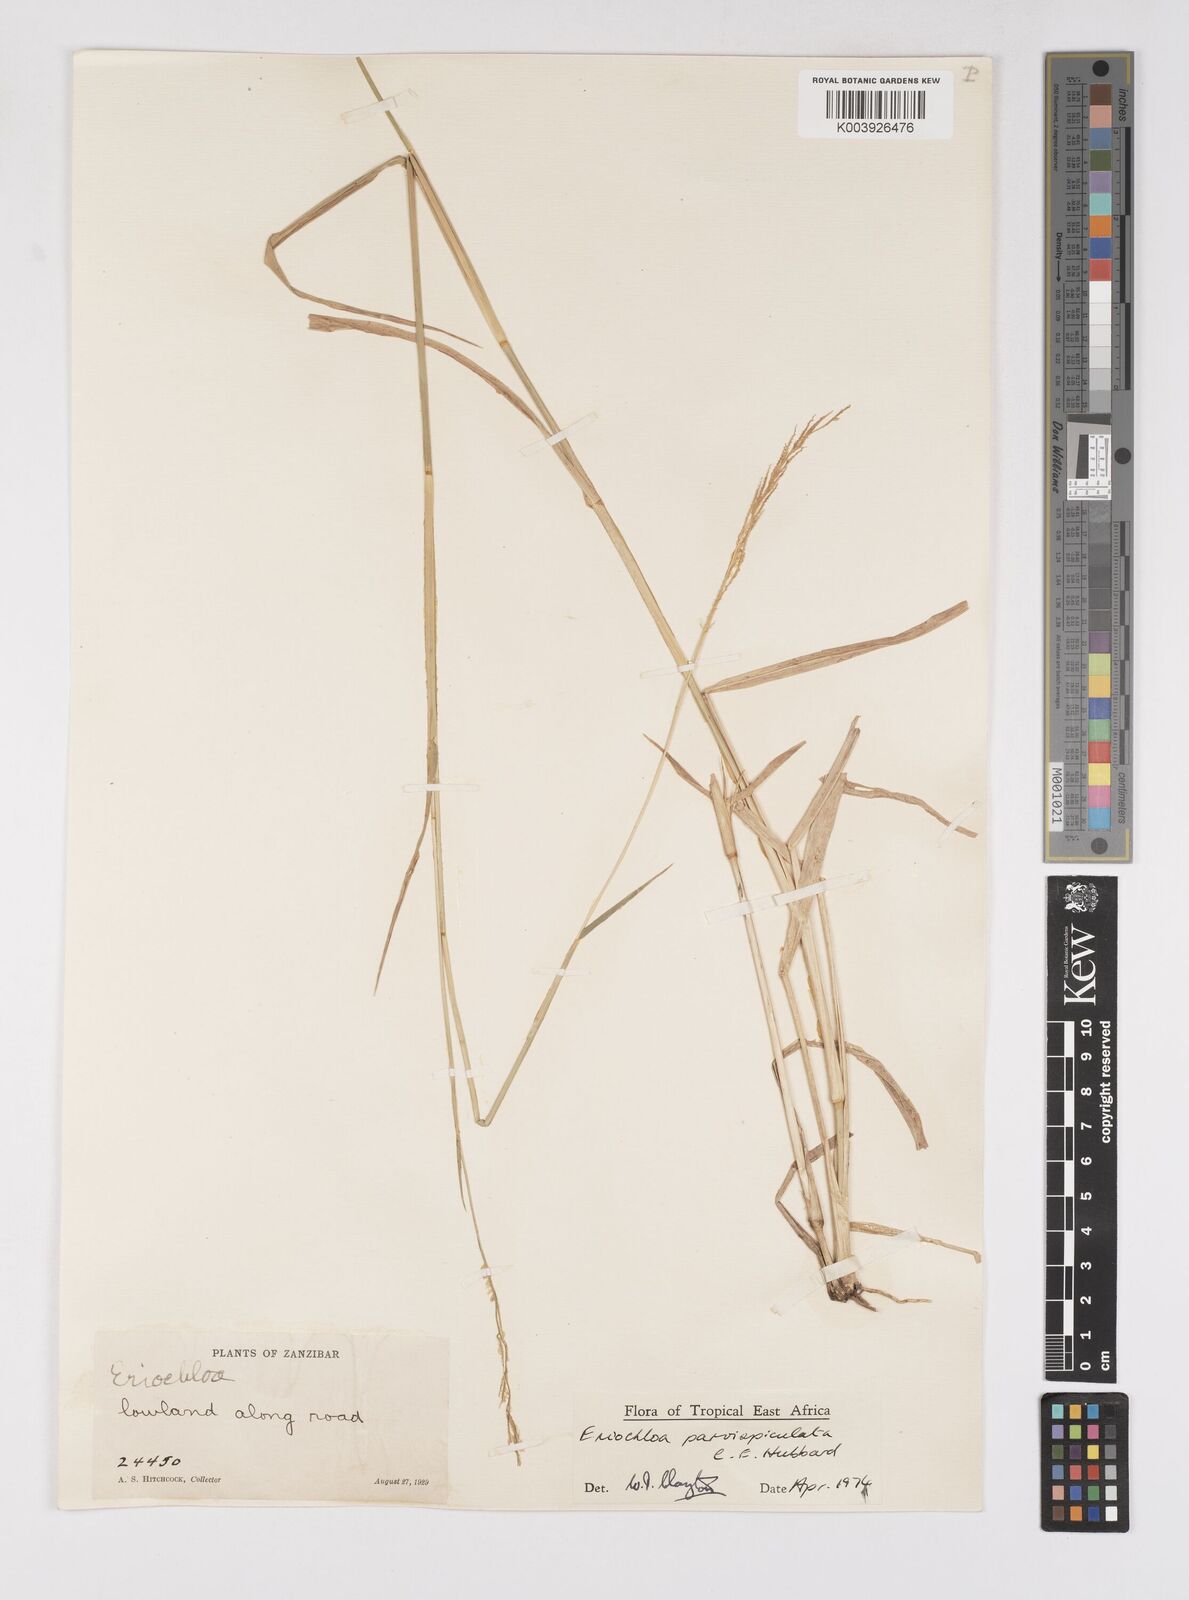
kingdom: Plantae
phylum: Tracheophyta
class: Liliopsida
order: Poales
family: Poaceae
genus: Eriochloa
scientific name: Eriochloa parvispiculata
